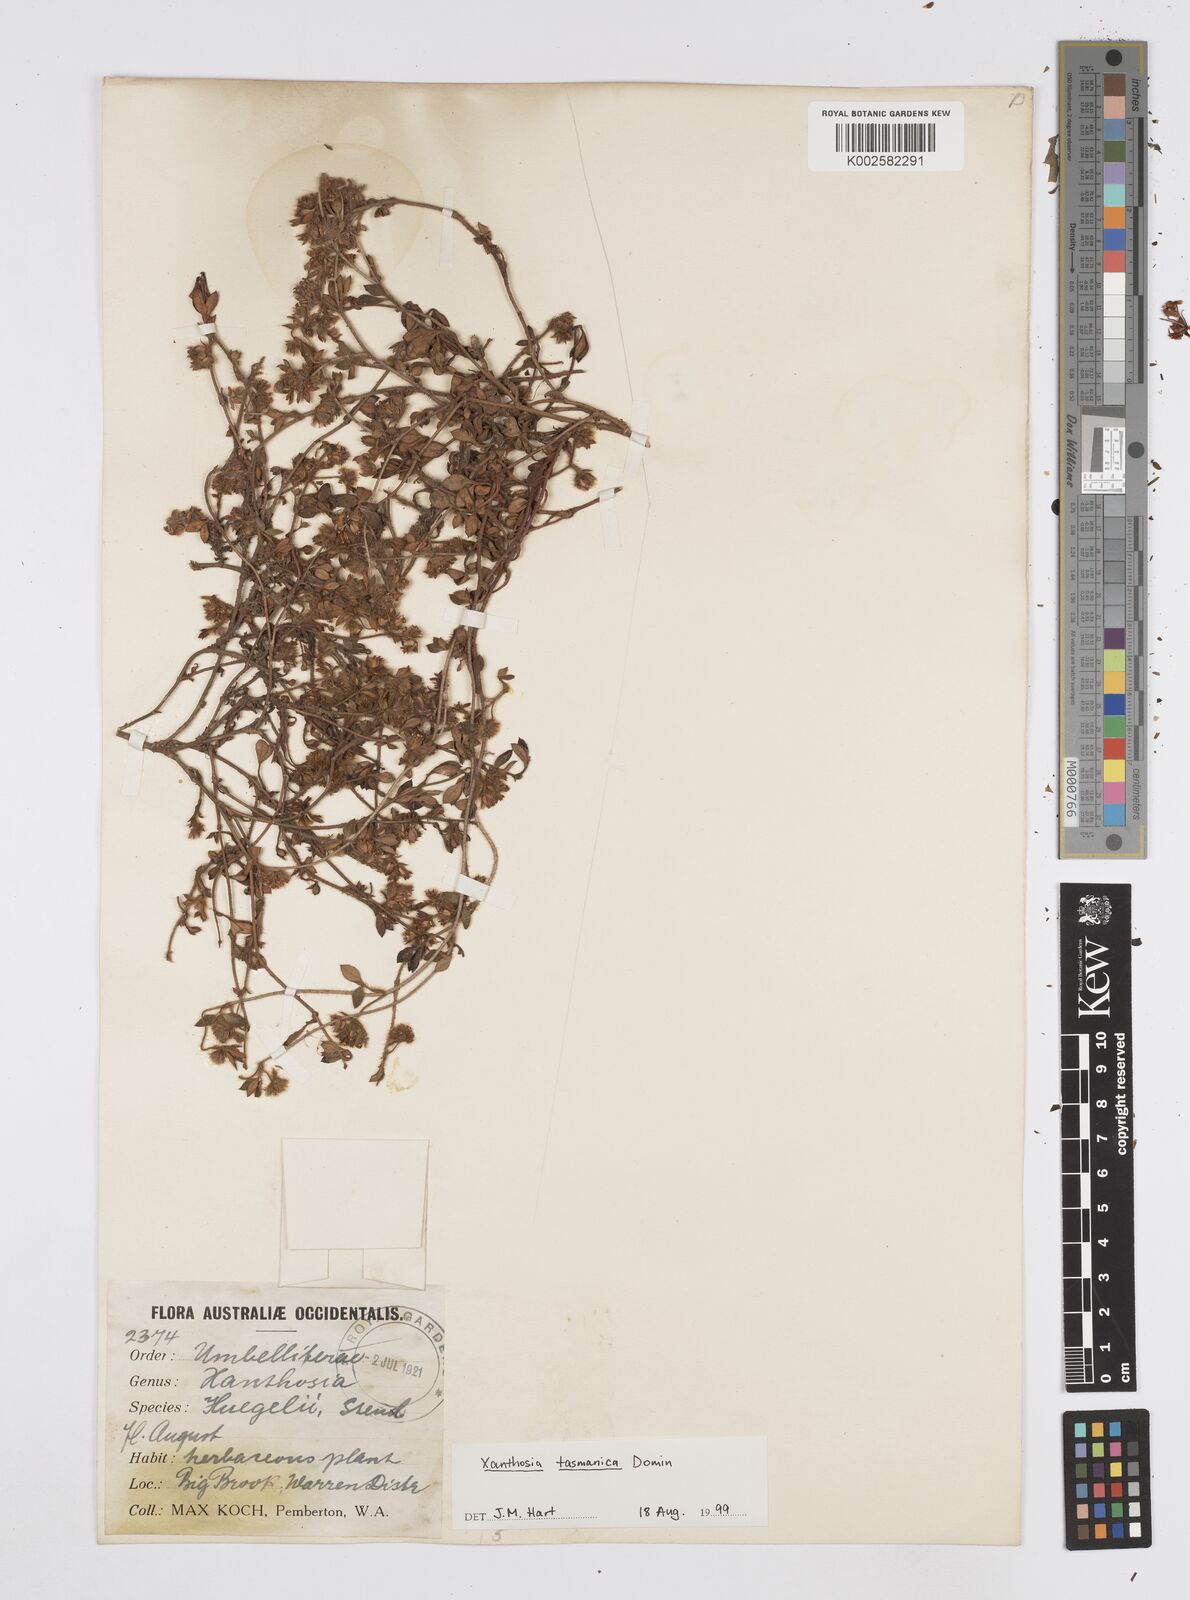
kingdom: Plantae
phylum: Tracheophyta
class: Magnoliopsida
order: Apiales
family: Apiaceae
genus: Xanthosia
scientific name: Xanthosia tasmanica
